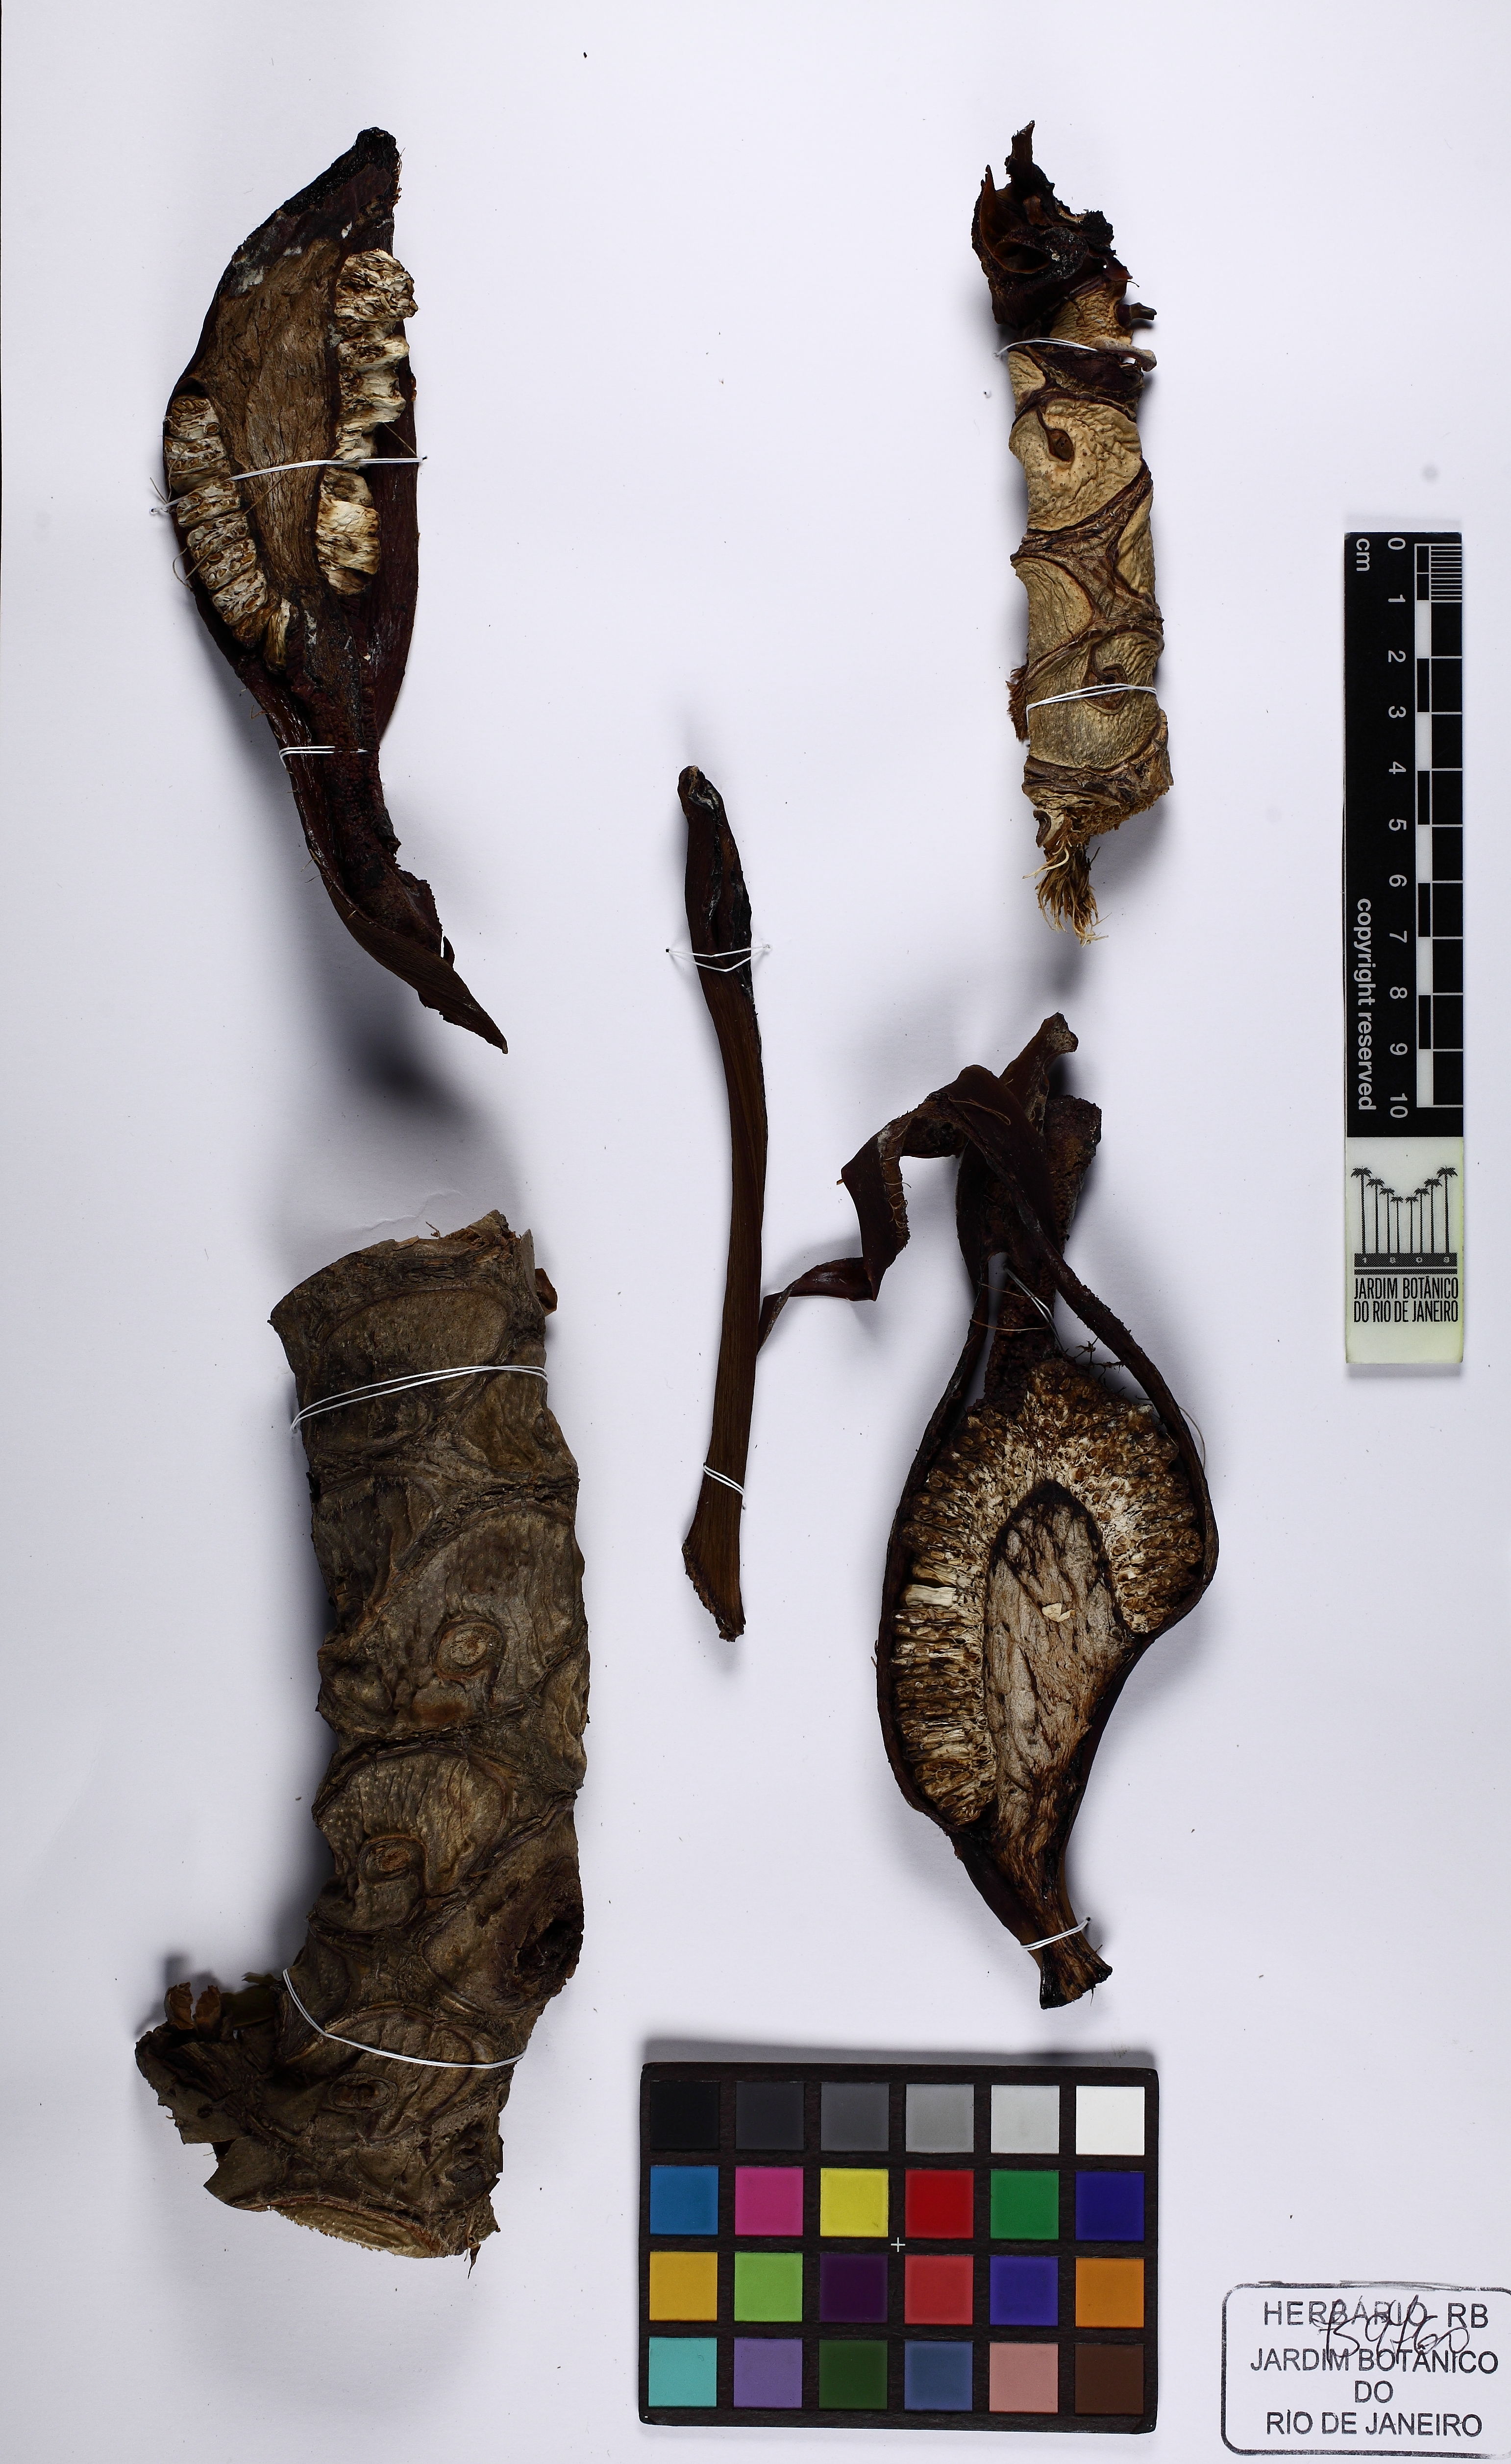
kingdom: Plantae
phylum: Tracheophyta
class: Liliopsida
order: Alismatales
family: Araceae
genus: Thaumatophyllum
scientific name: Thaumatophyllum bipinnatifidum
